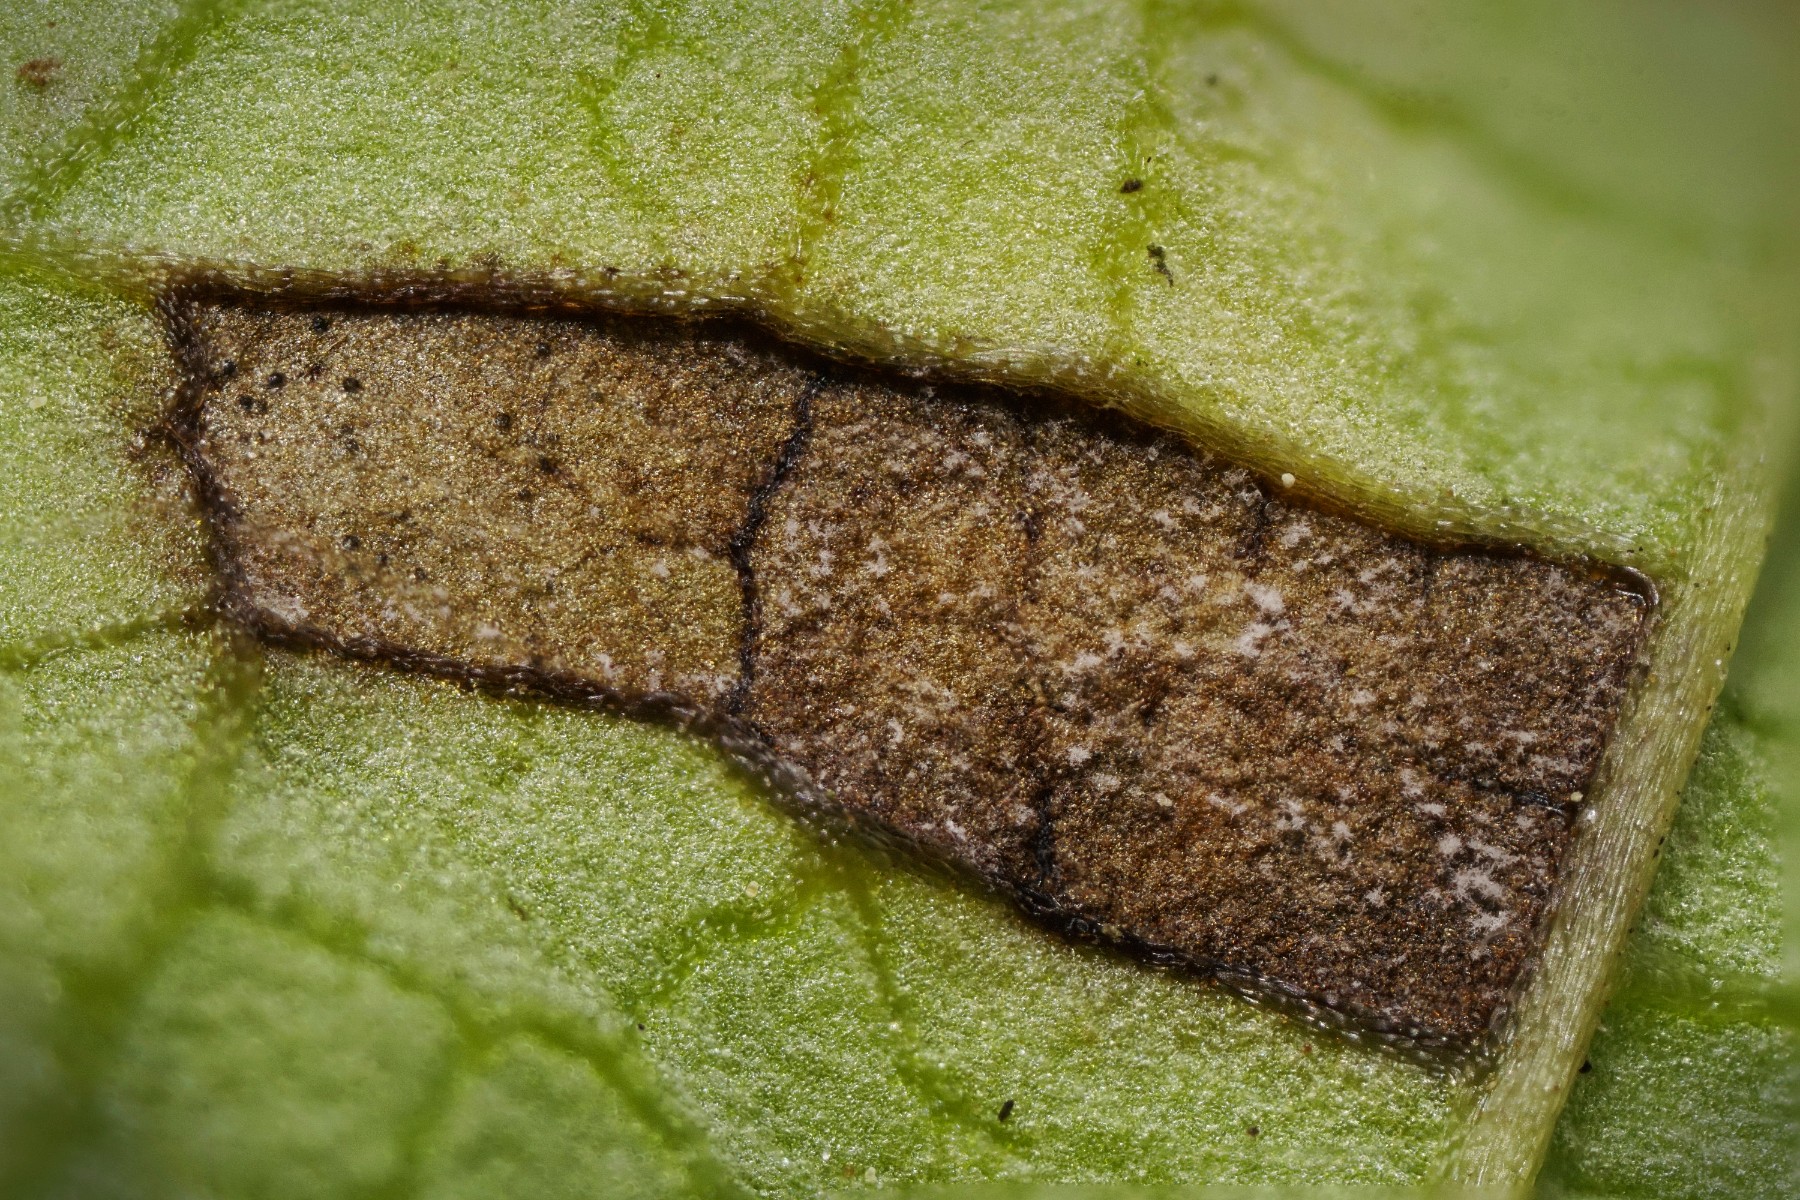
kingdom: Fungi
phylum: Ascomycota
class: Dothideomycetes
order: Mycosphaerellales
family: Mycosphaerellaceae
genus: Ramularia
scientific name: Ramularia carneola
